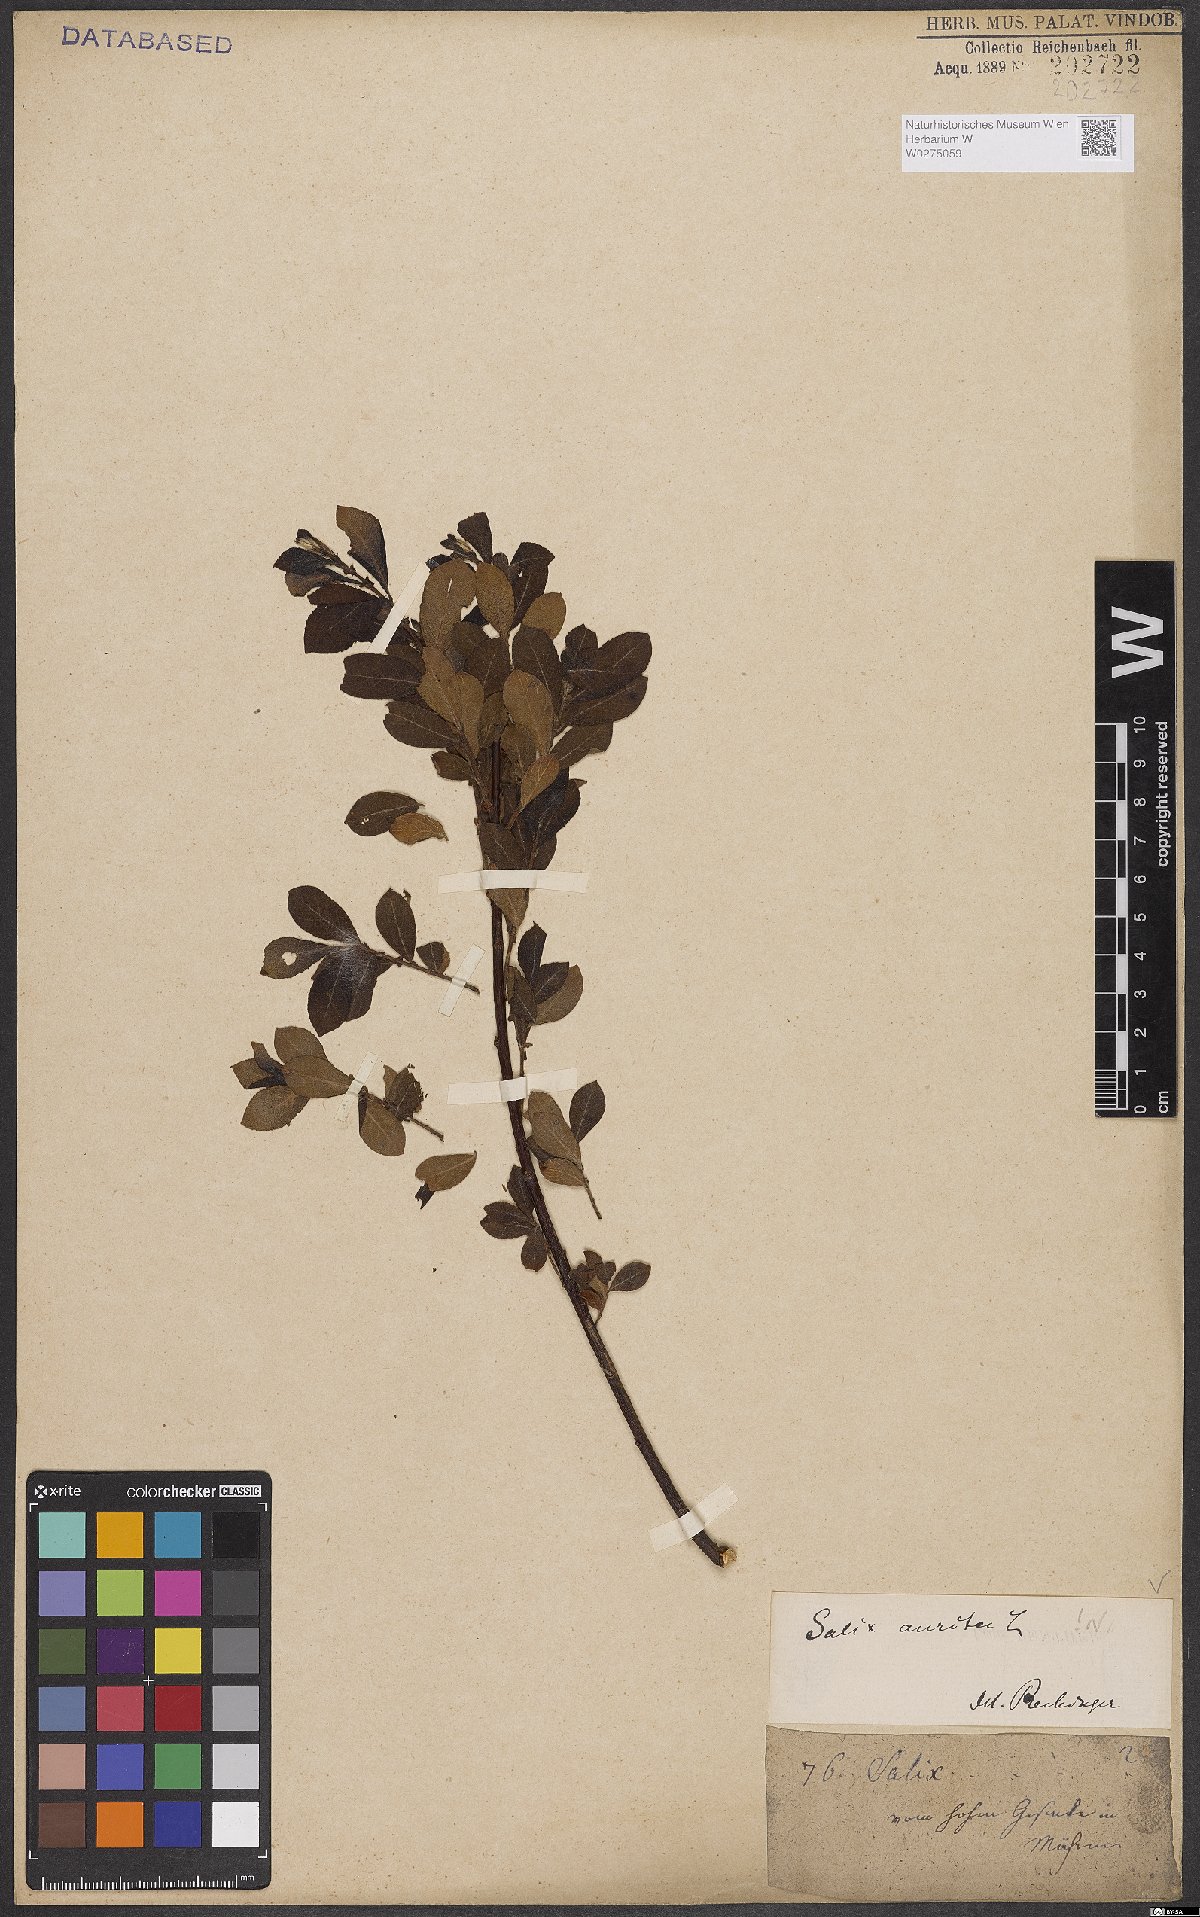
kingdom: Plantae
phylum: Tracheophyta
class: Magnoliopsida
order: Malpighiales
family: Salicaceae
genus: Salix
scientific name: Salix aurita
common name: Eared willow
